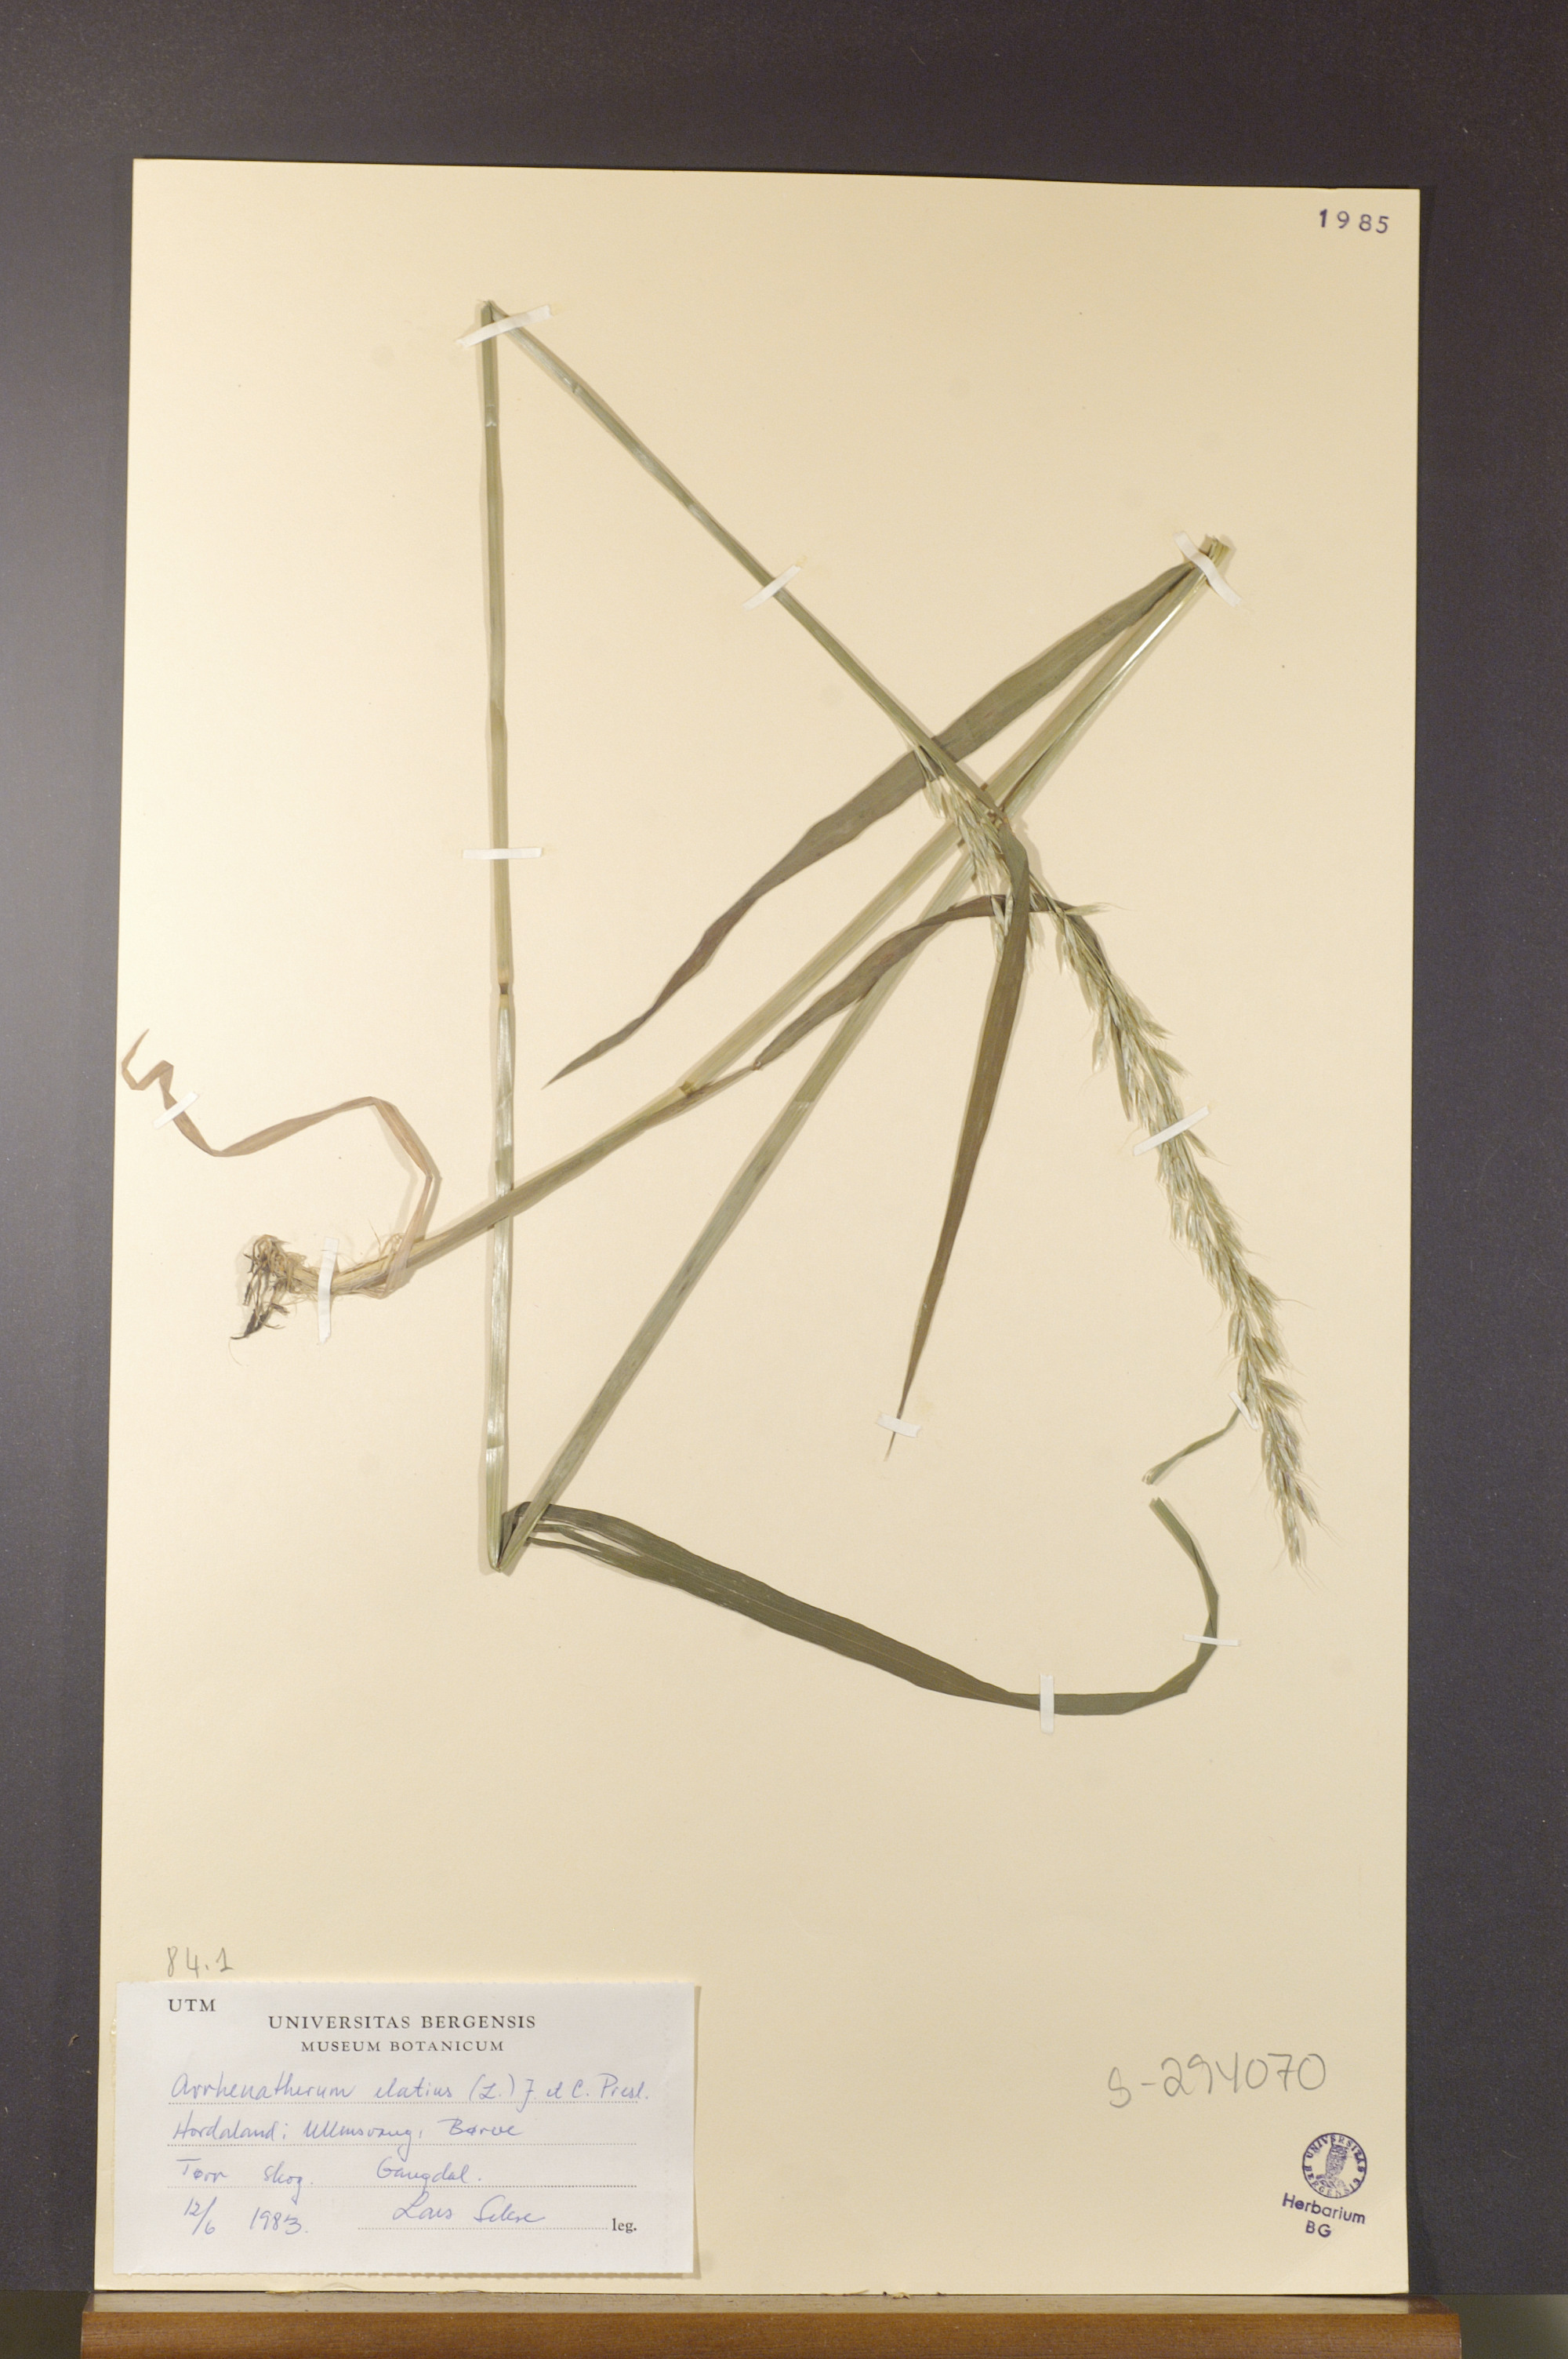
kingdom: Plantae
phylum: Tracheophyta
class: Liliopsida
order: Poales
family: Poaceae
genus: Arrhenatherum
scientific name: Arrhenatherum elatius
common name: Tall oatgrass
